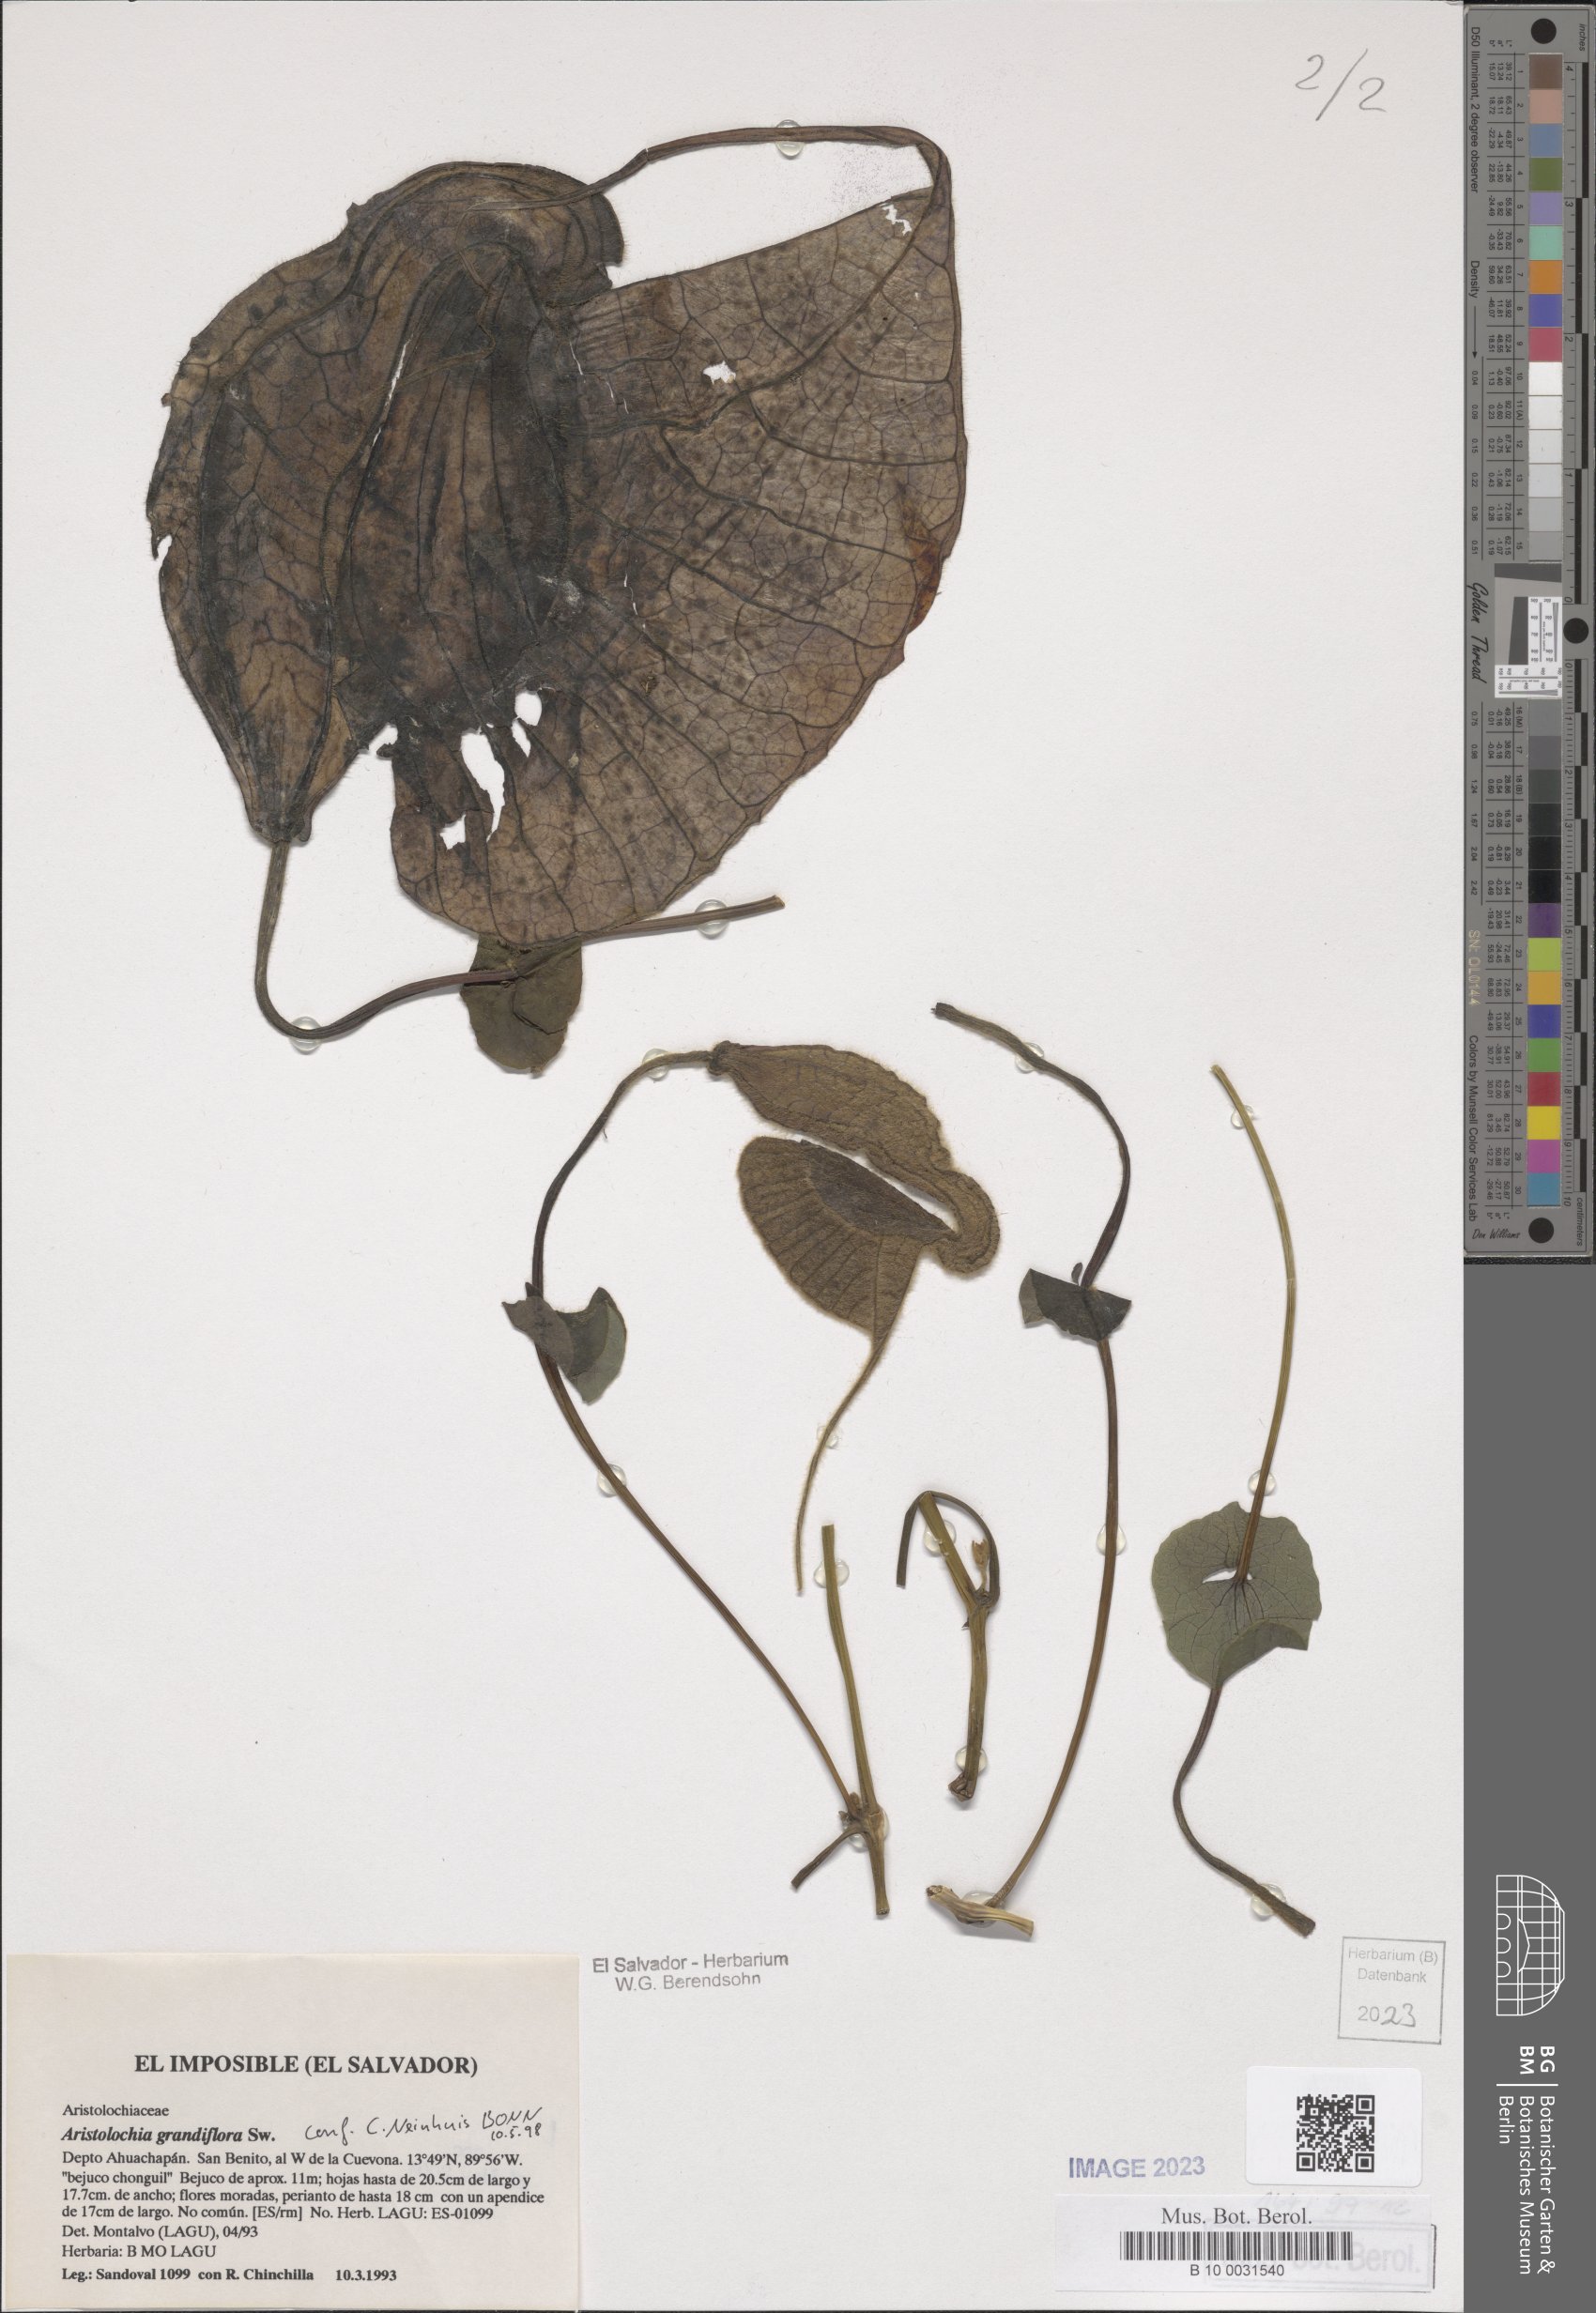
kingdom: Plantae
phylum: Tracheophyta
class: Magnoliopsida
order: Piperales
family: Aristolochiaceae
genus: Aristolochia
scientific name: Aristolochia grandiflora
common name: Pelicanflower
